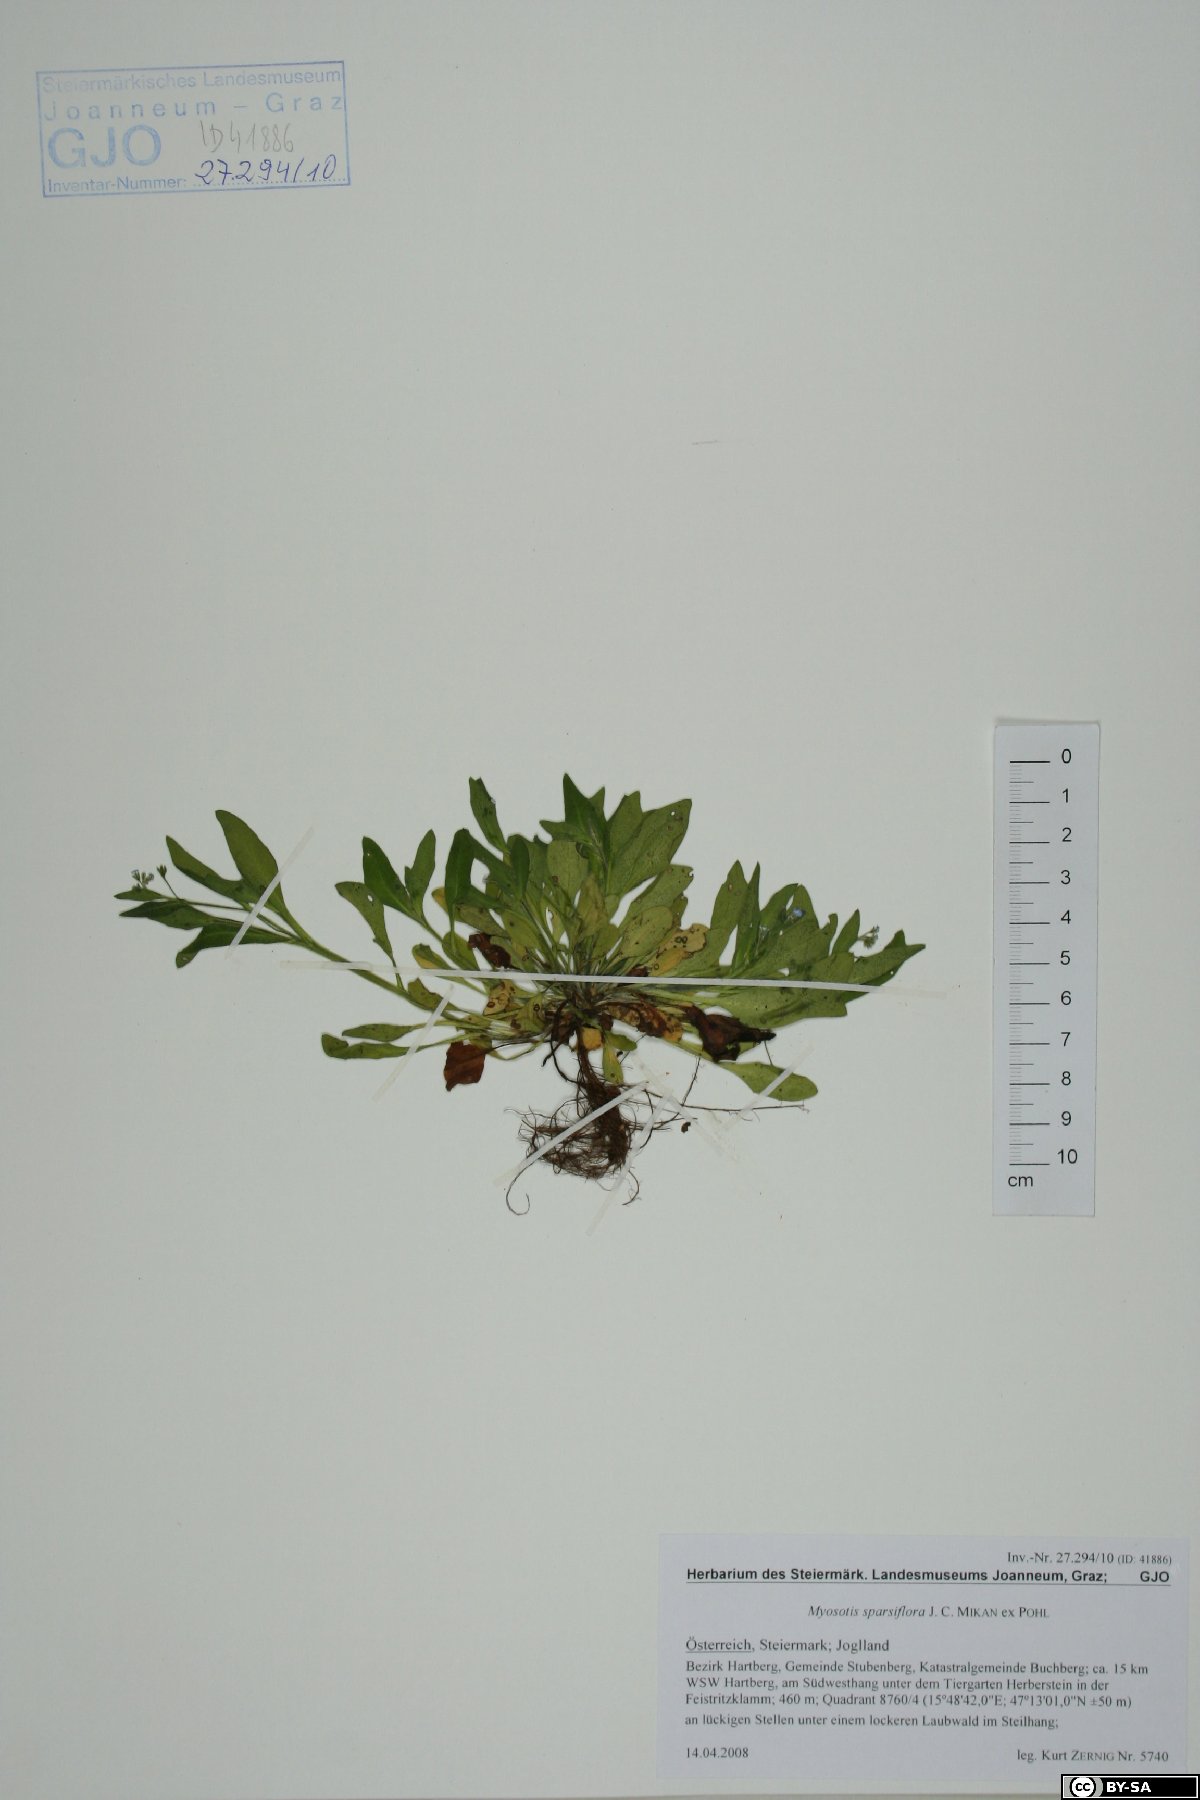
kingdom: Plantae
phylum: Tracheophyta
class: Magnoliopsida
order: Boraginales
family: Boraginaceae
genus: Myosotis
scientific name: Myosotis sparsiflora
